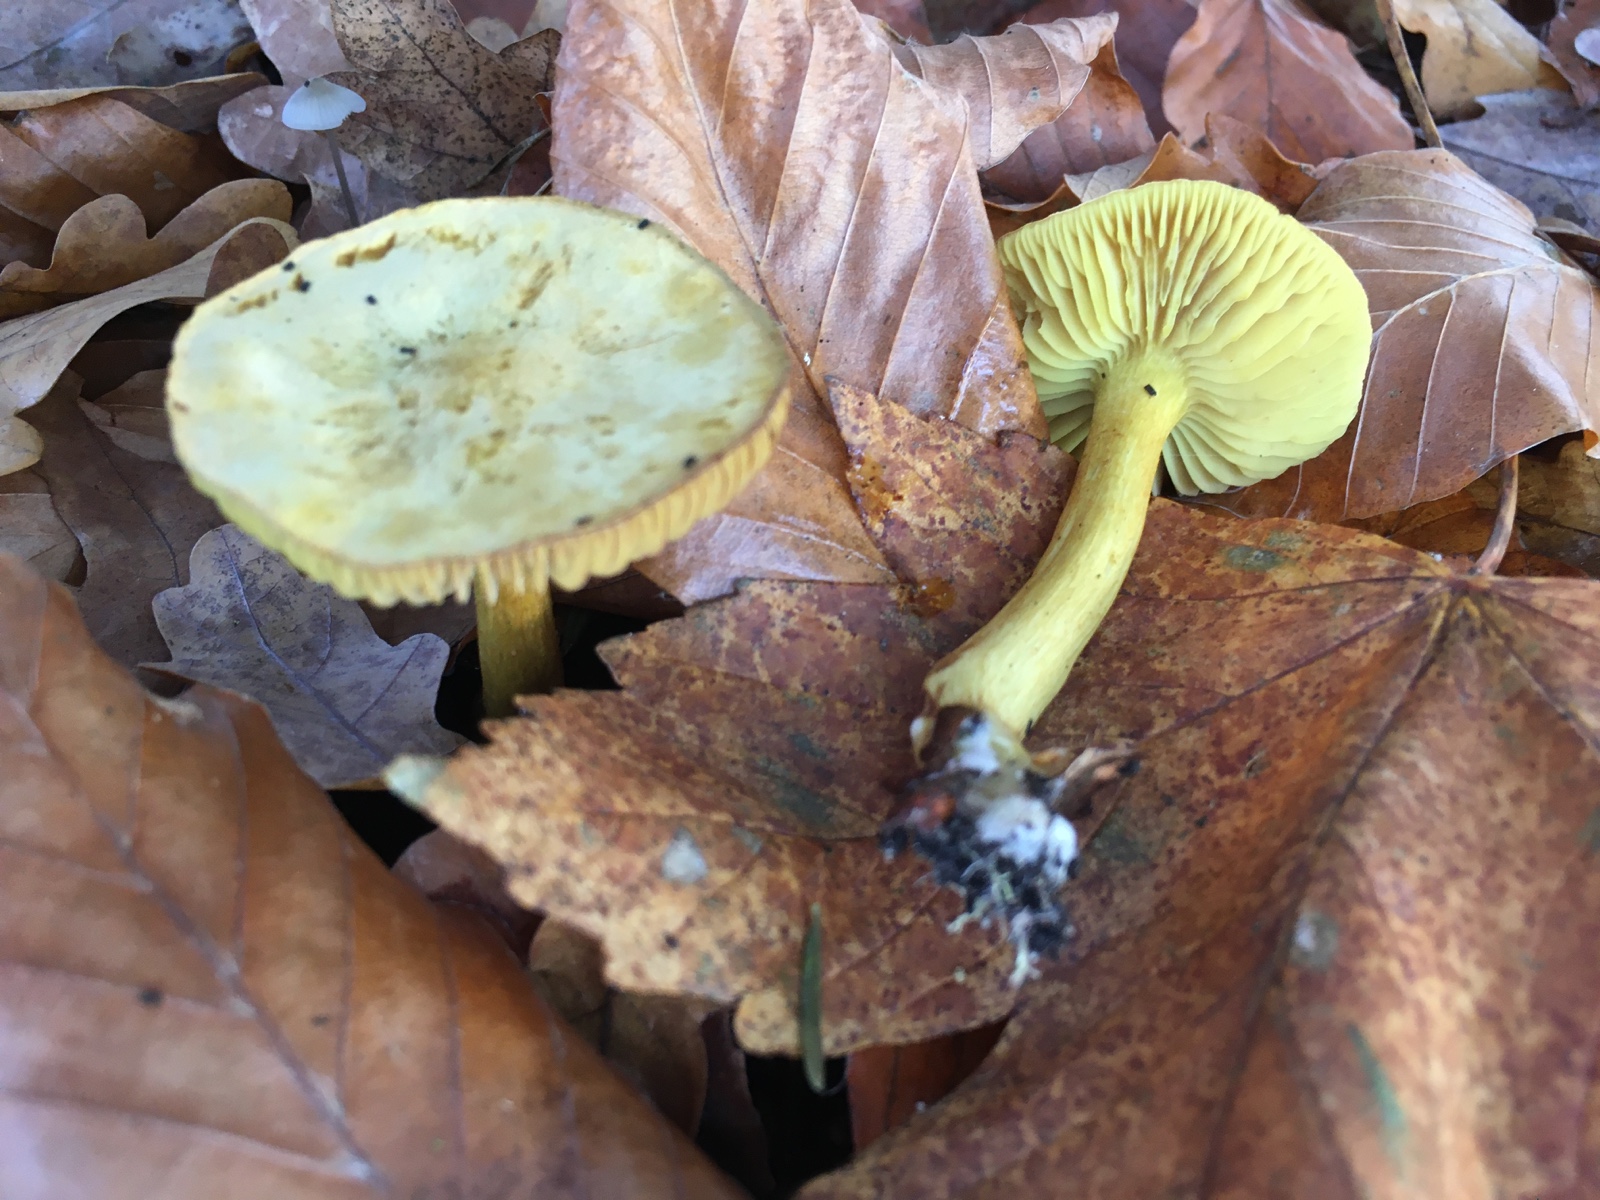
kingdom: Fungi
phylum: Basidiomycota
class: Agaricomycetes
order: Agaricales
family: Tricholomataceae
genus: Tricholoma
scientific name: Tricholoma sulphureum
